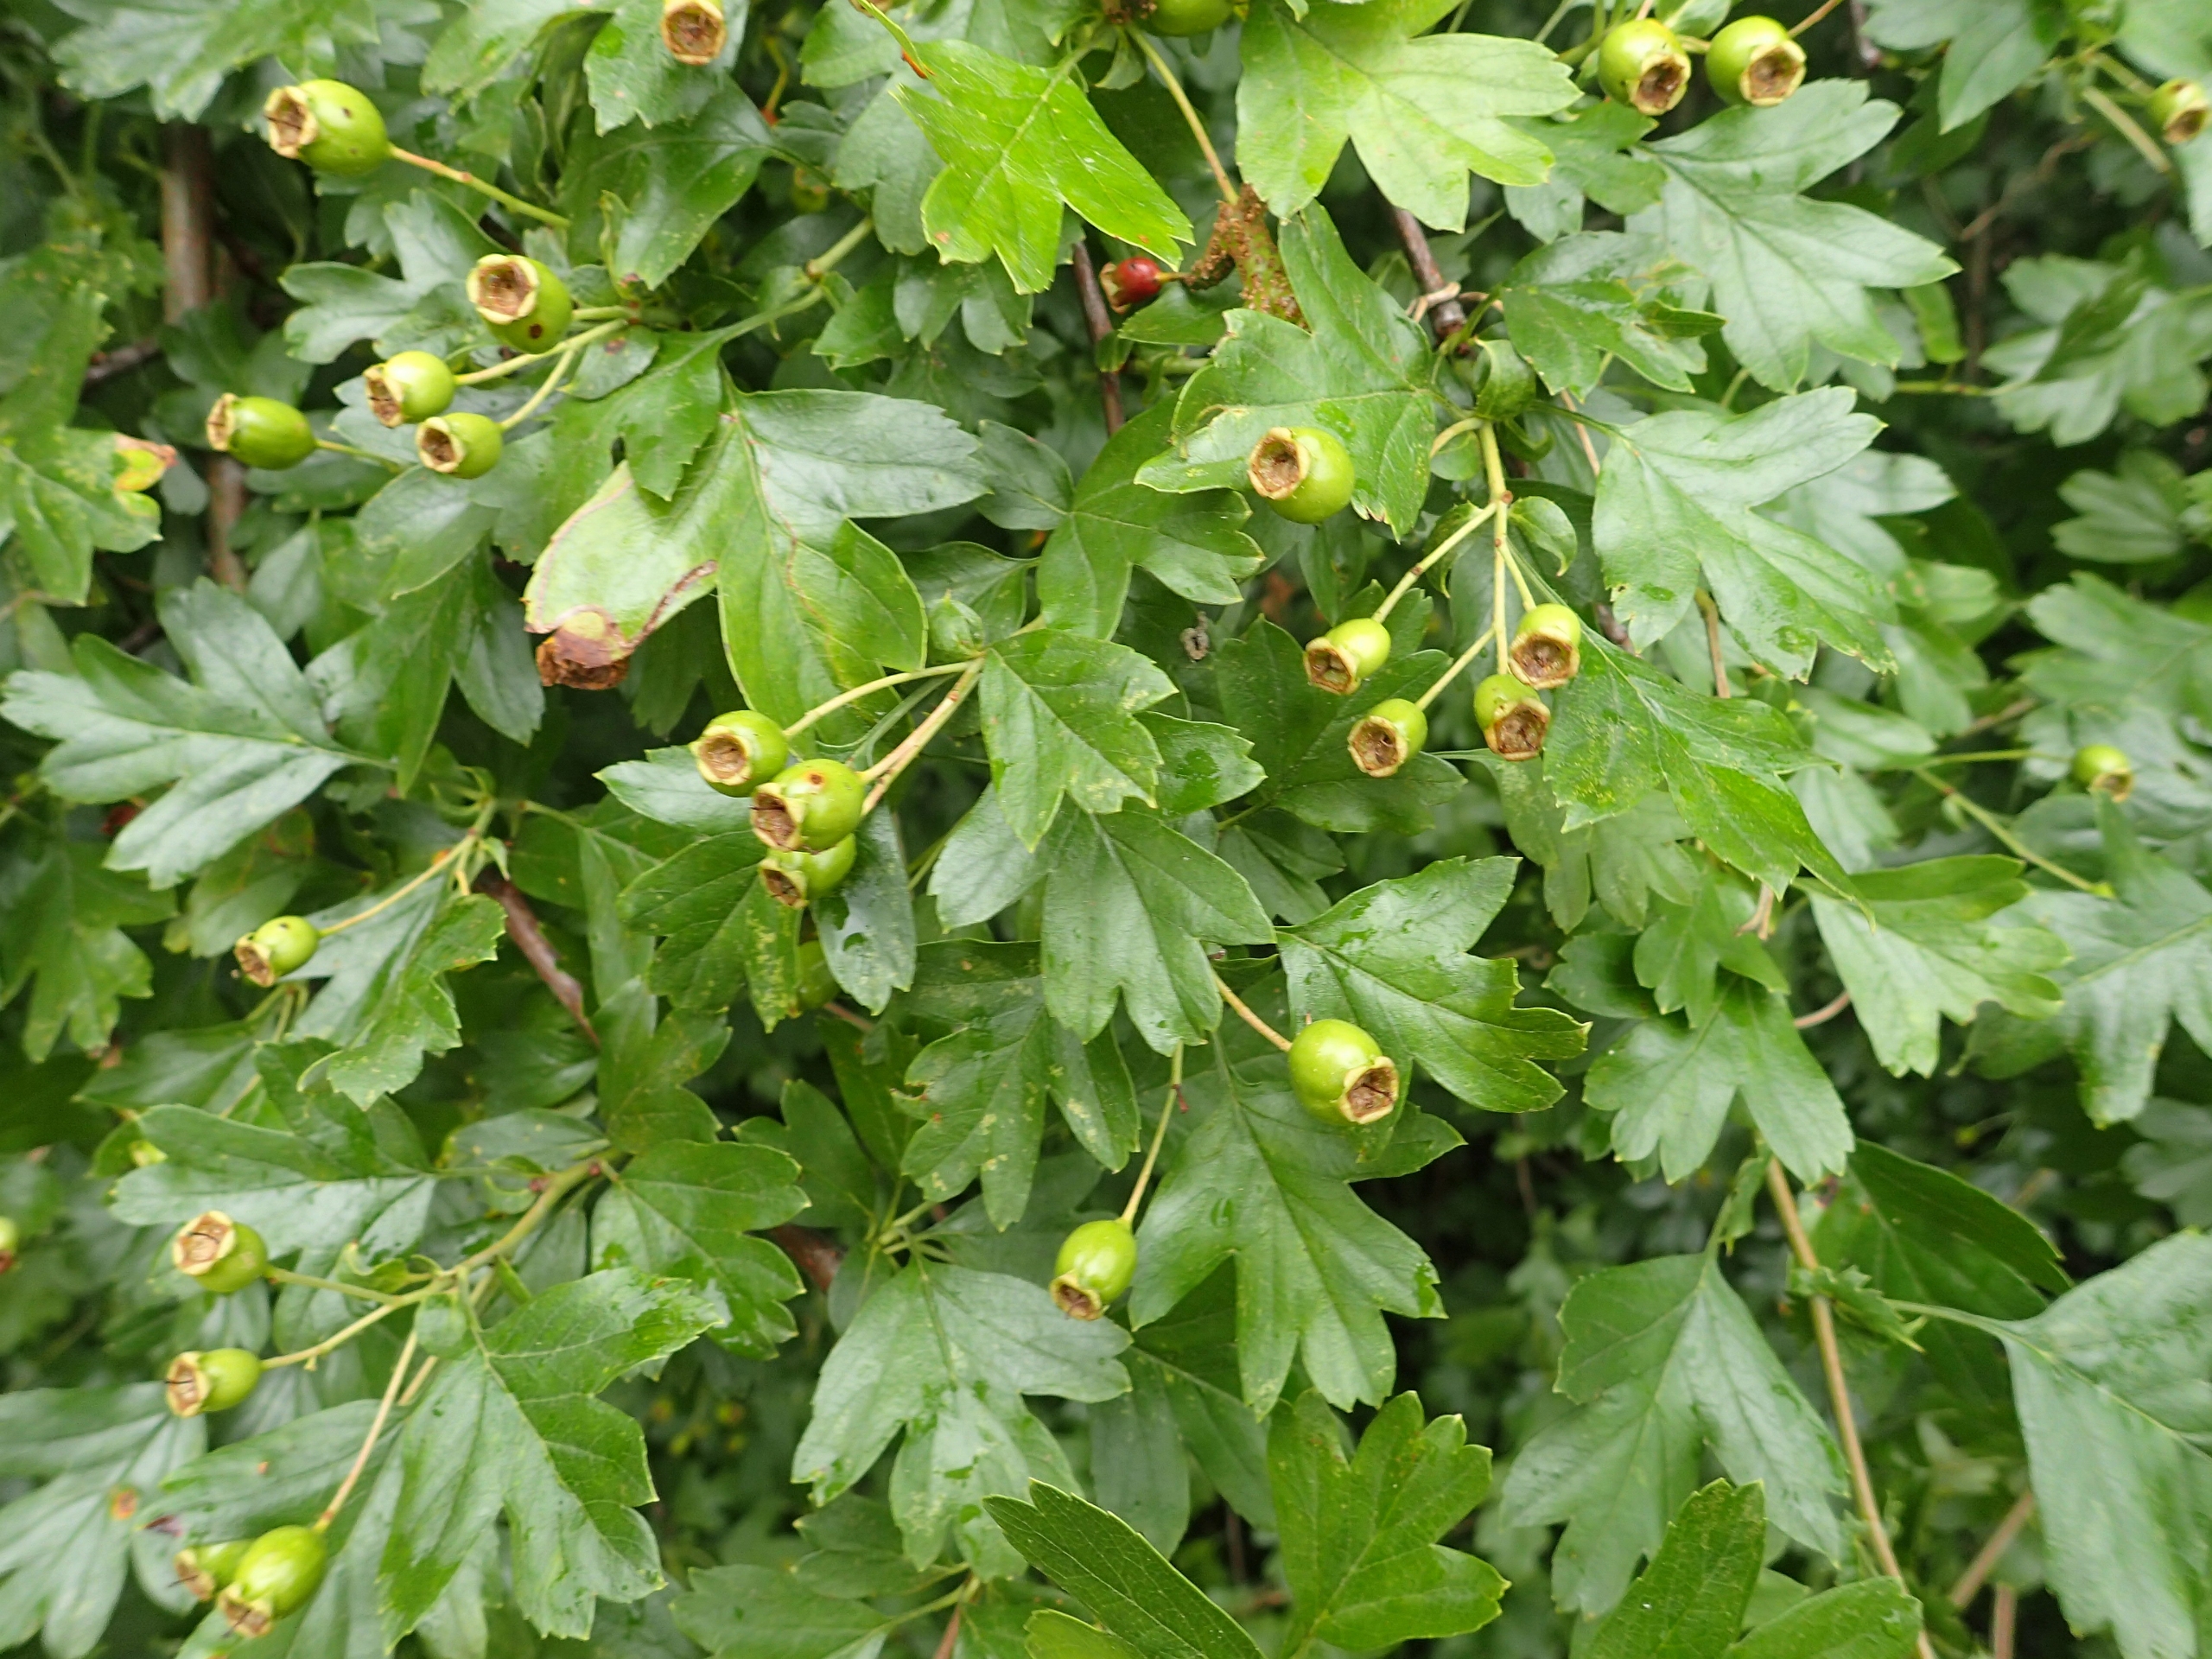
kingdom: Plantae
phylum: Tracheophyta
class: Magnoliopsida
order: Rosales
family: Rosaceae
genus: Crataegus
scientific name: Crataegus monogyna
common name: Engriflet hvidtjørn
